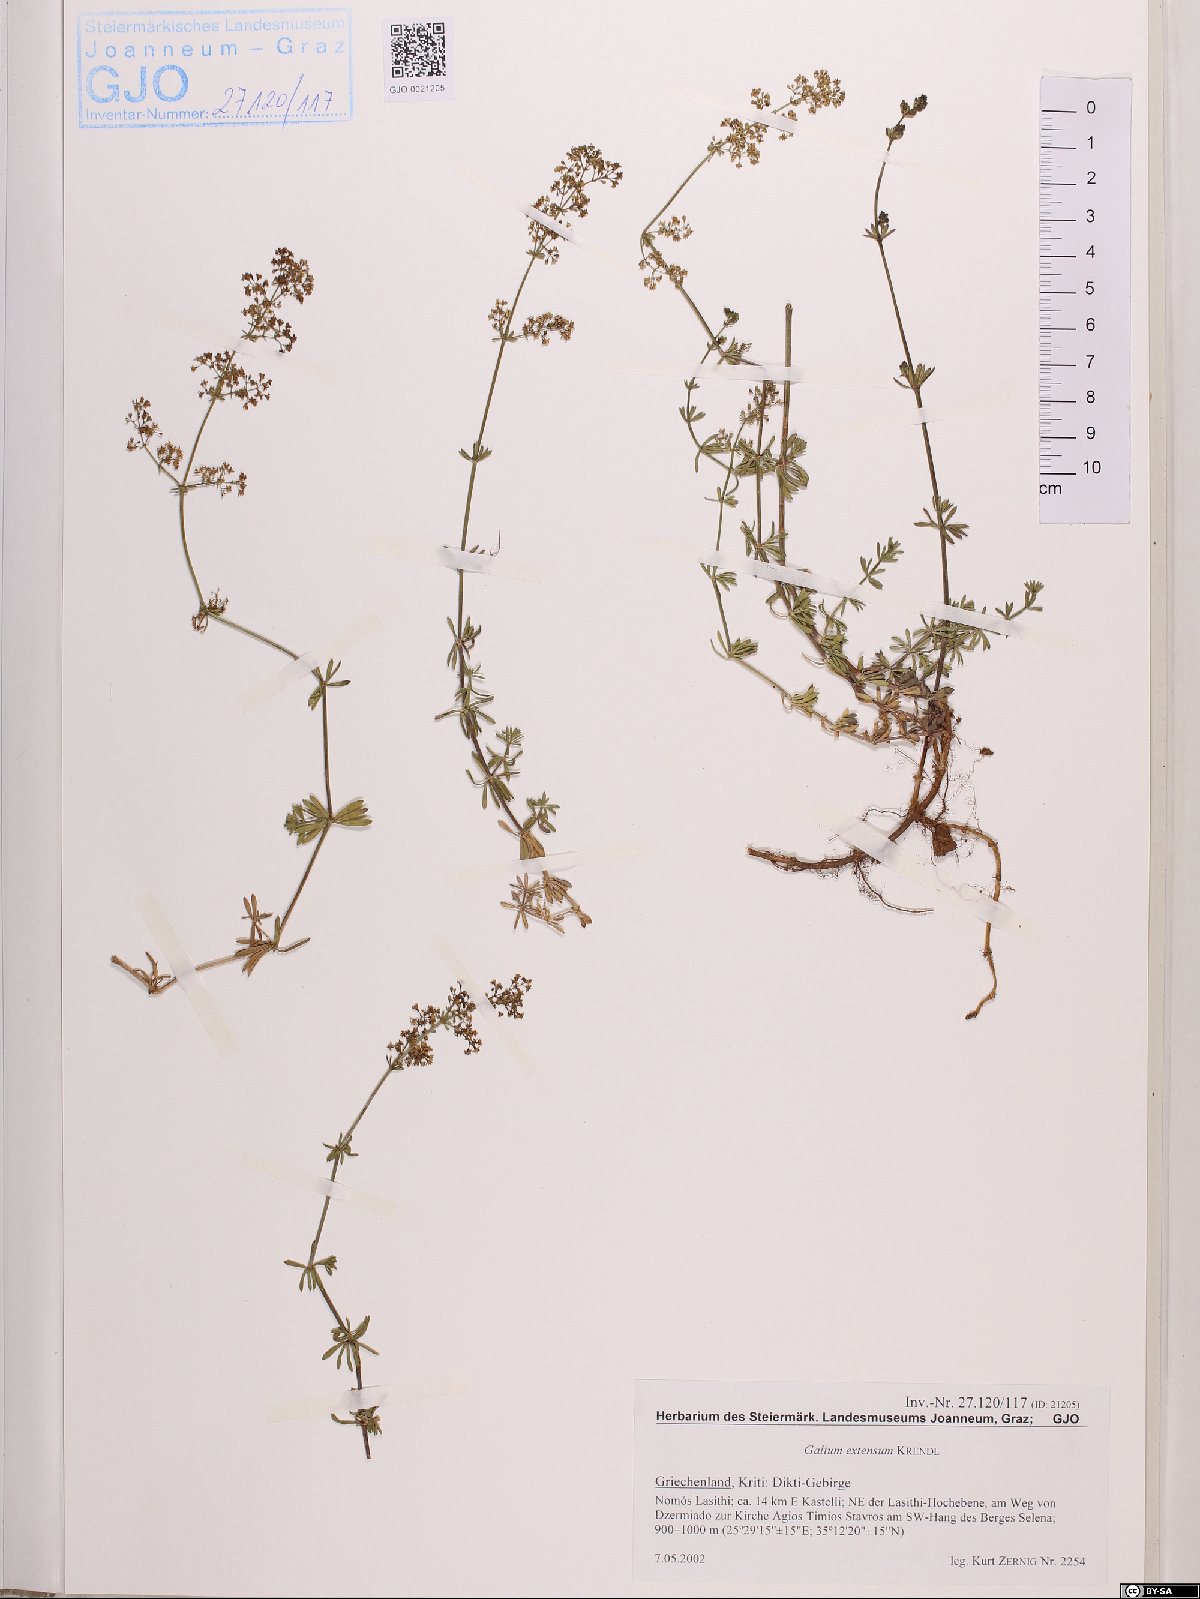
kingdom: Plantae
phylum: Tracheophyta
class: Magnoliopsida
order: Gentianales
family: Rubiaceae
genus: Galium
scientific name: Galium extensum
